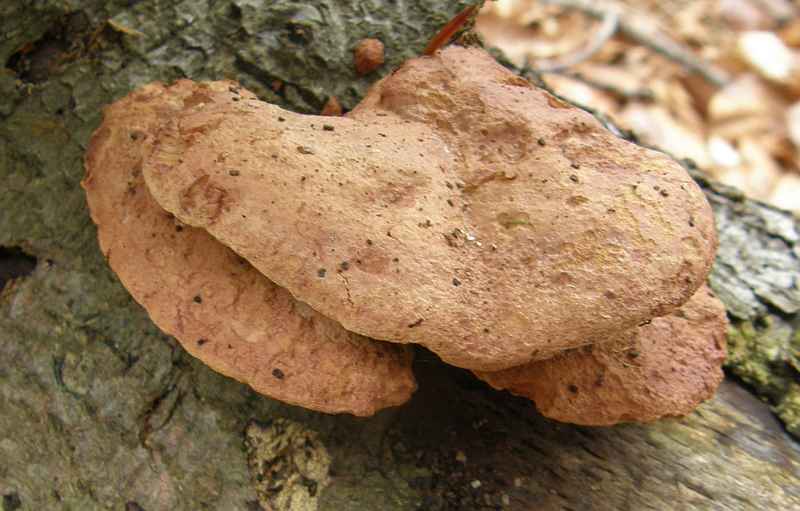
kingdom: Fungi
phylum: Basidiomycota
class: Agaricomycetes
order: Polyporales
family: Phanerochaetaceae
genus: Hapalopilus
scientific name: Hapalopilus rutilans
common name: rødlig okkerporesvamp
